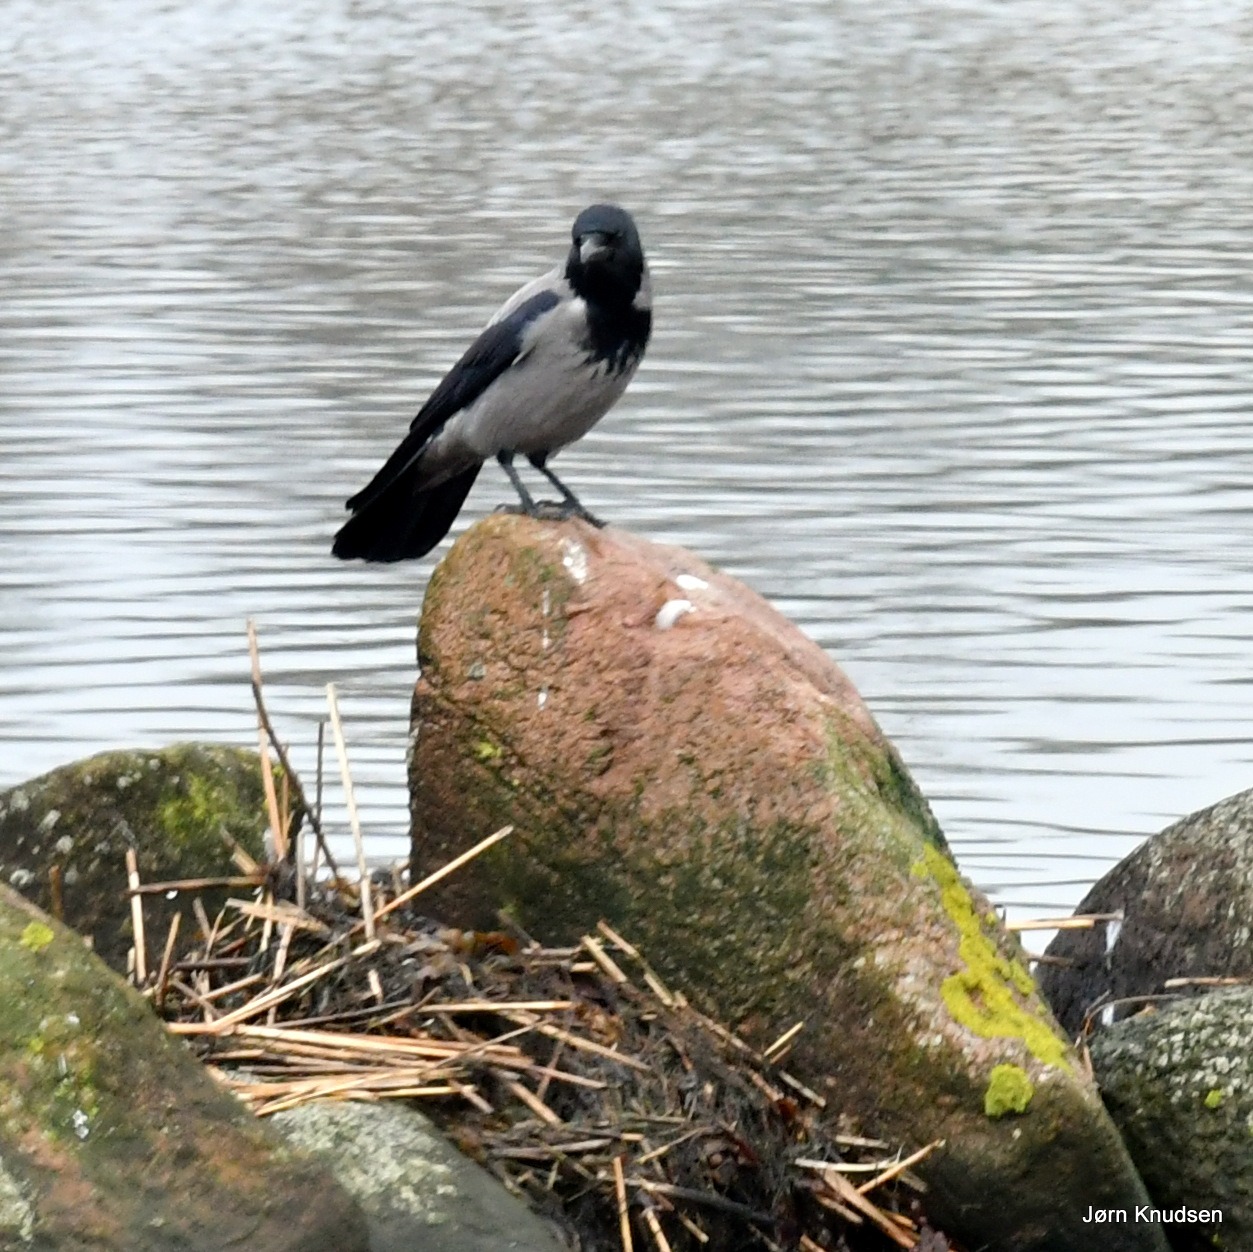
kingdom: Animalia
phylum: Chordata
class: Aves
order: Passeriformes
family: Corvidae
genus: Corvus
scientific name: Corvus cornix
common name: Gråkrage
